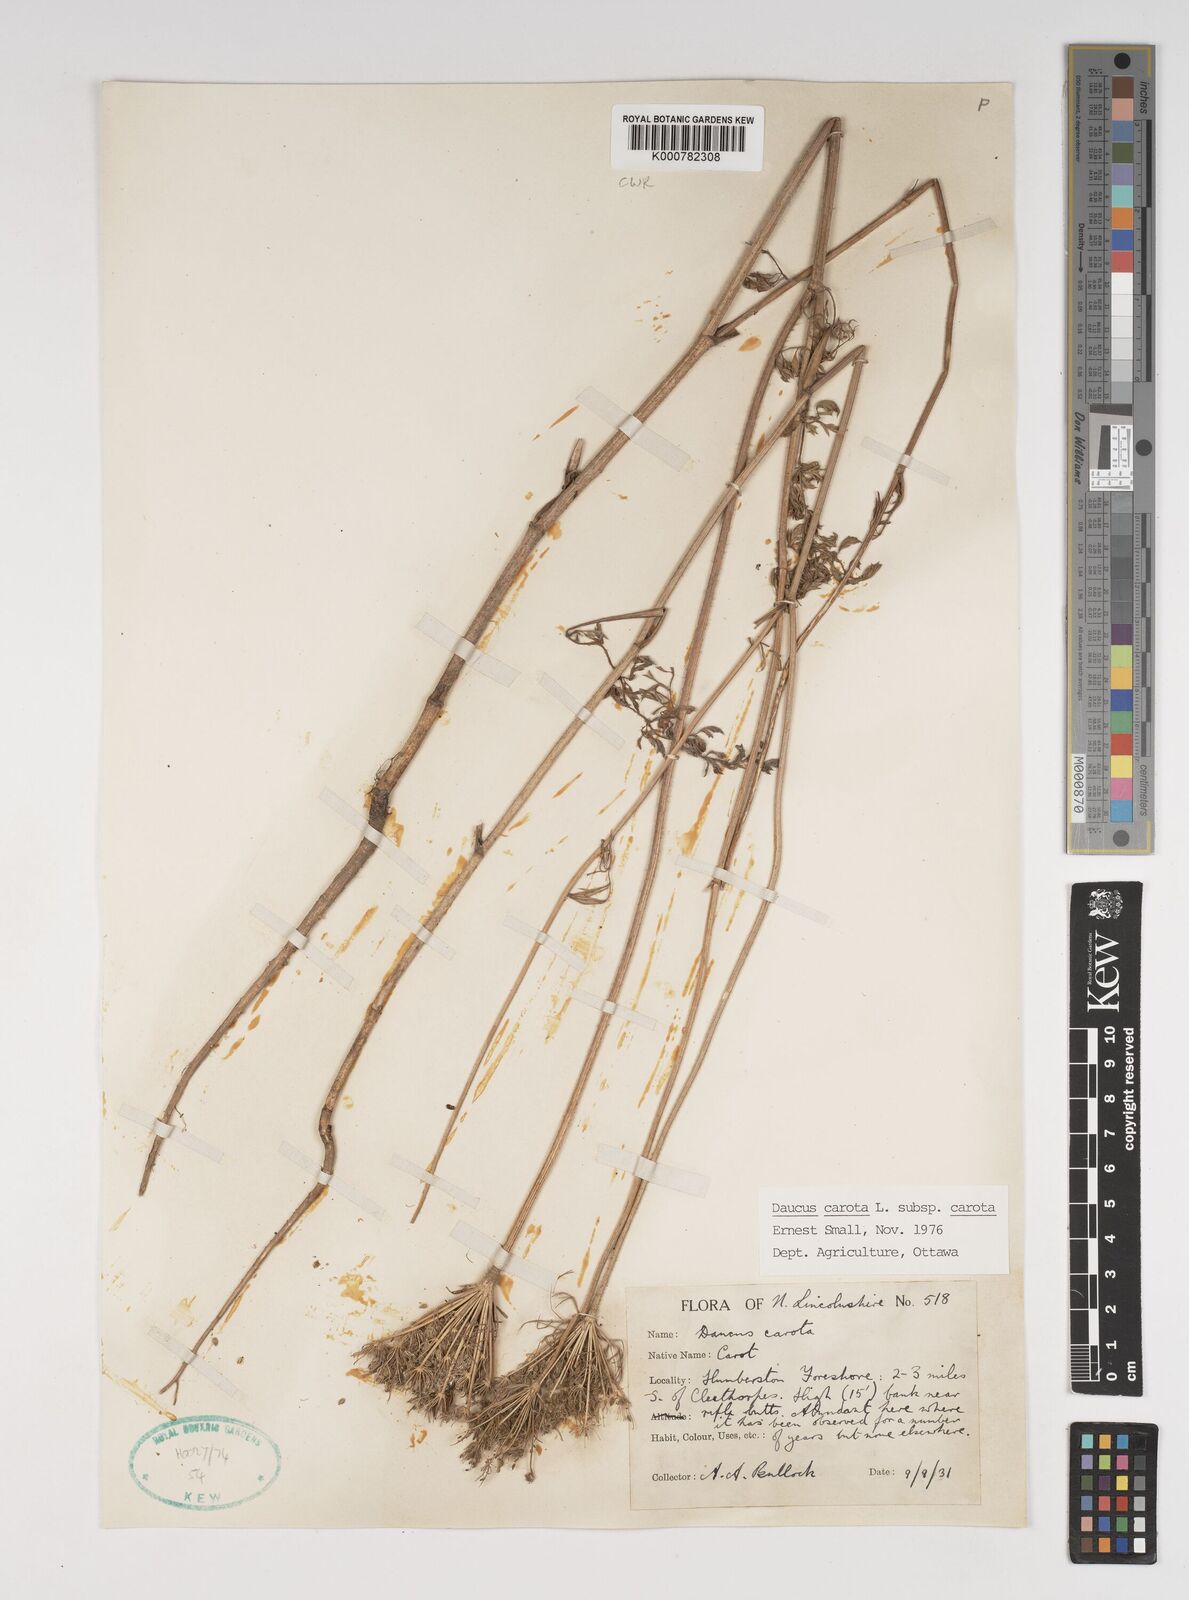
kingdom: Plantae
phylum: Tracheophyta
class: Magnoliopsida
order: Apiales
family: Apiaceae
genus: Daucus
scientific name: Daucus carota
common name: Wild carrot
